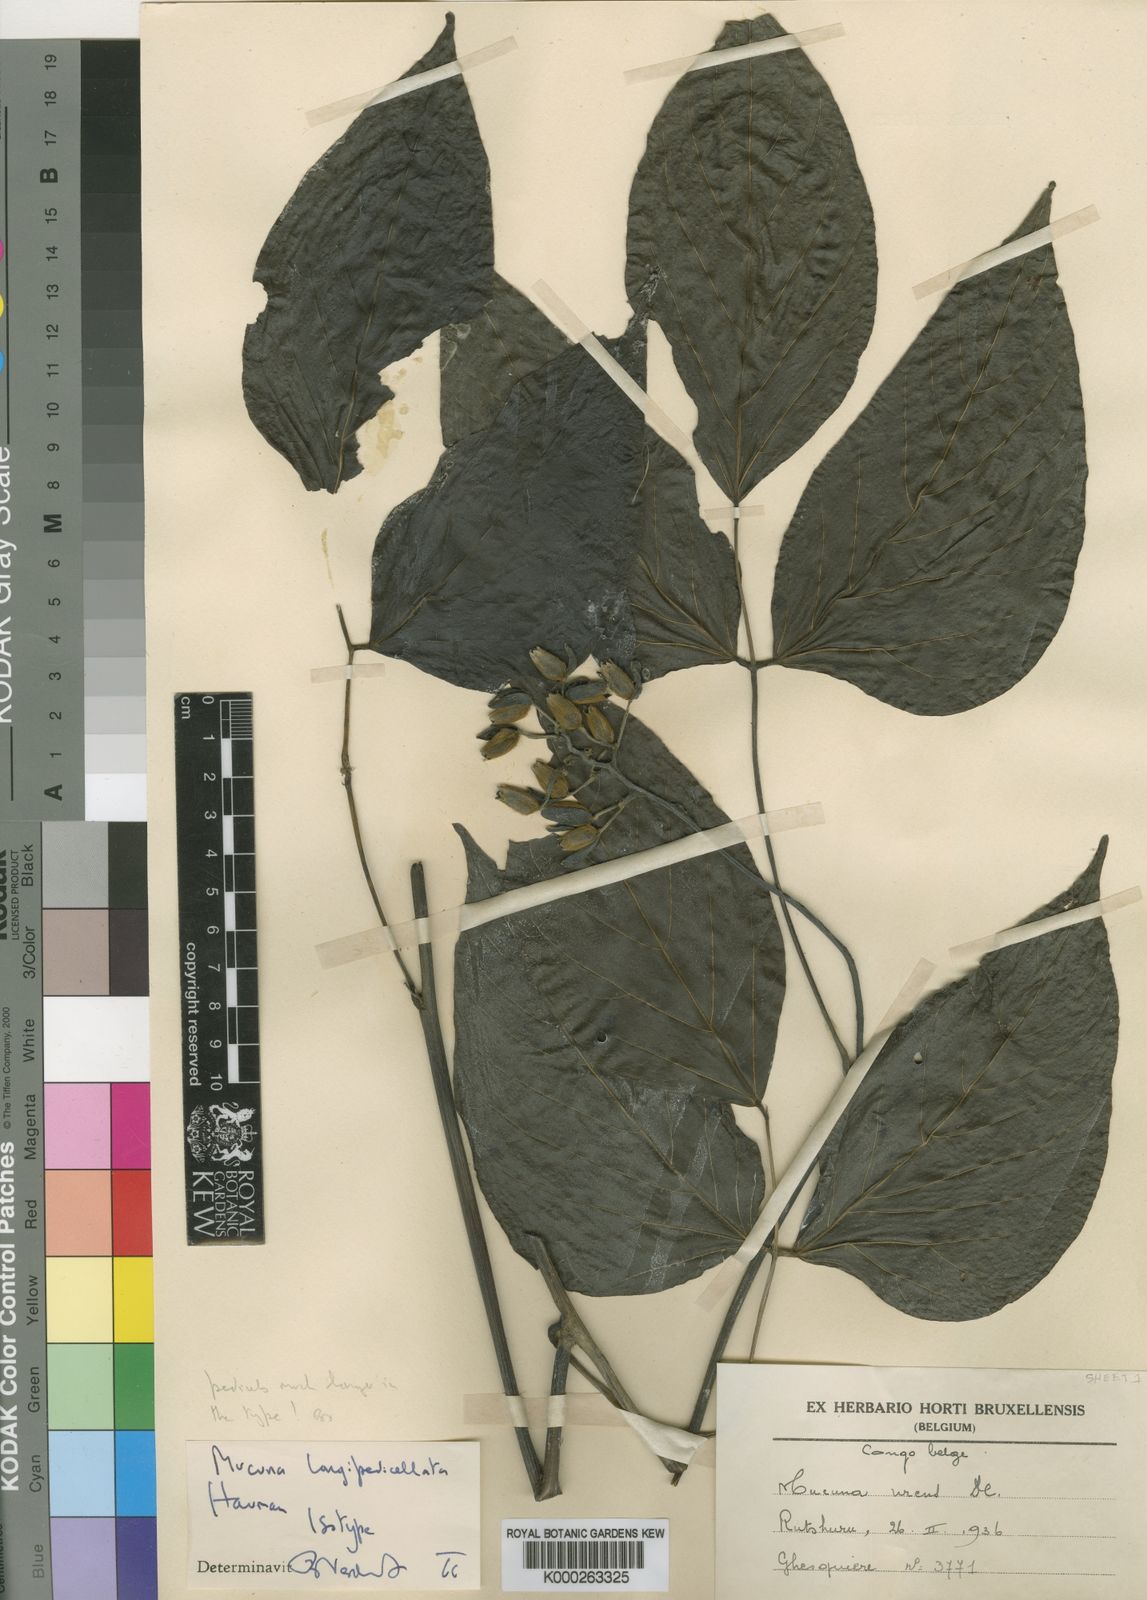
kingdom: Plantae
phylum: Tracheophyta
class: Magnoliopsida
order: Fabales
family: Fabaceae
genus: Mucuna
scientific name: Mucuna gigantea
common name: Black-bean
